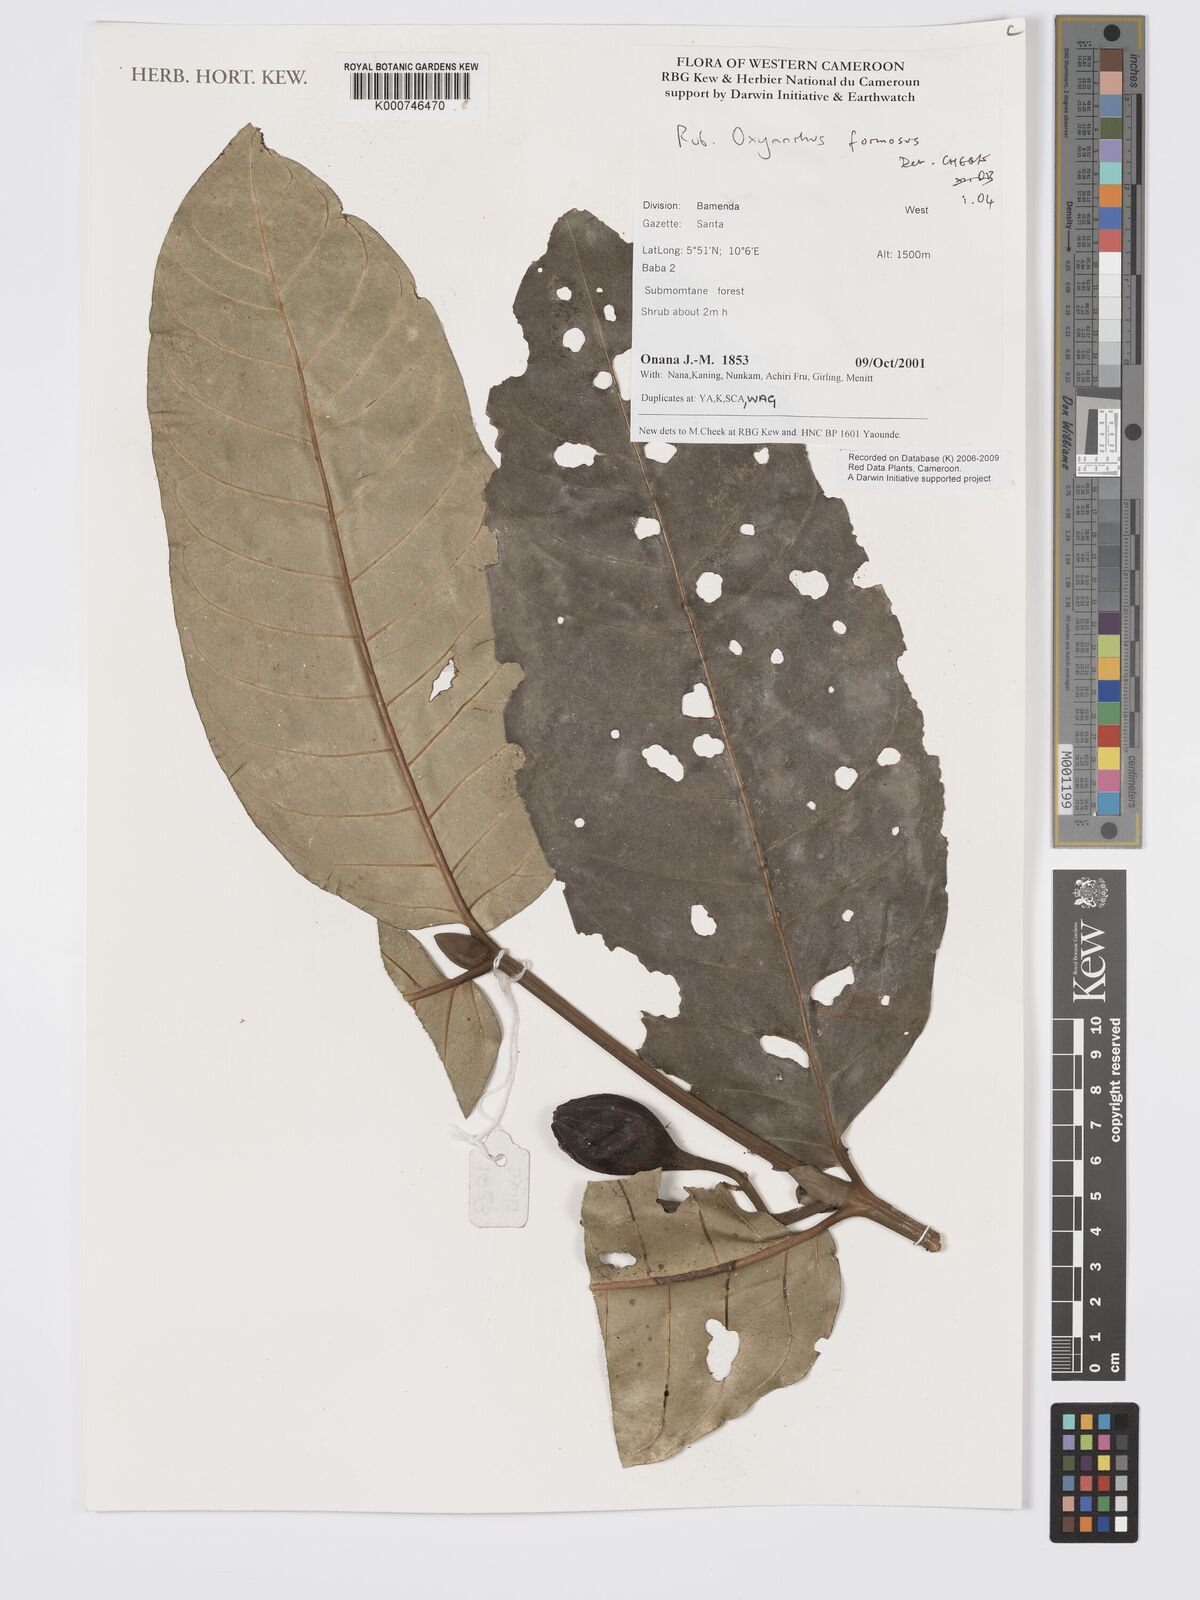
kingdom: Plantae
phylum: Tracheophyta
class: Magnoliopsida
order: Gentianales
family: Rubiaceae
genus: Oxyanthus
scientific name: Oxyanthus
